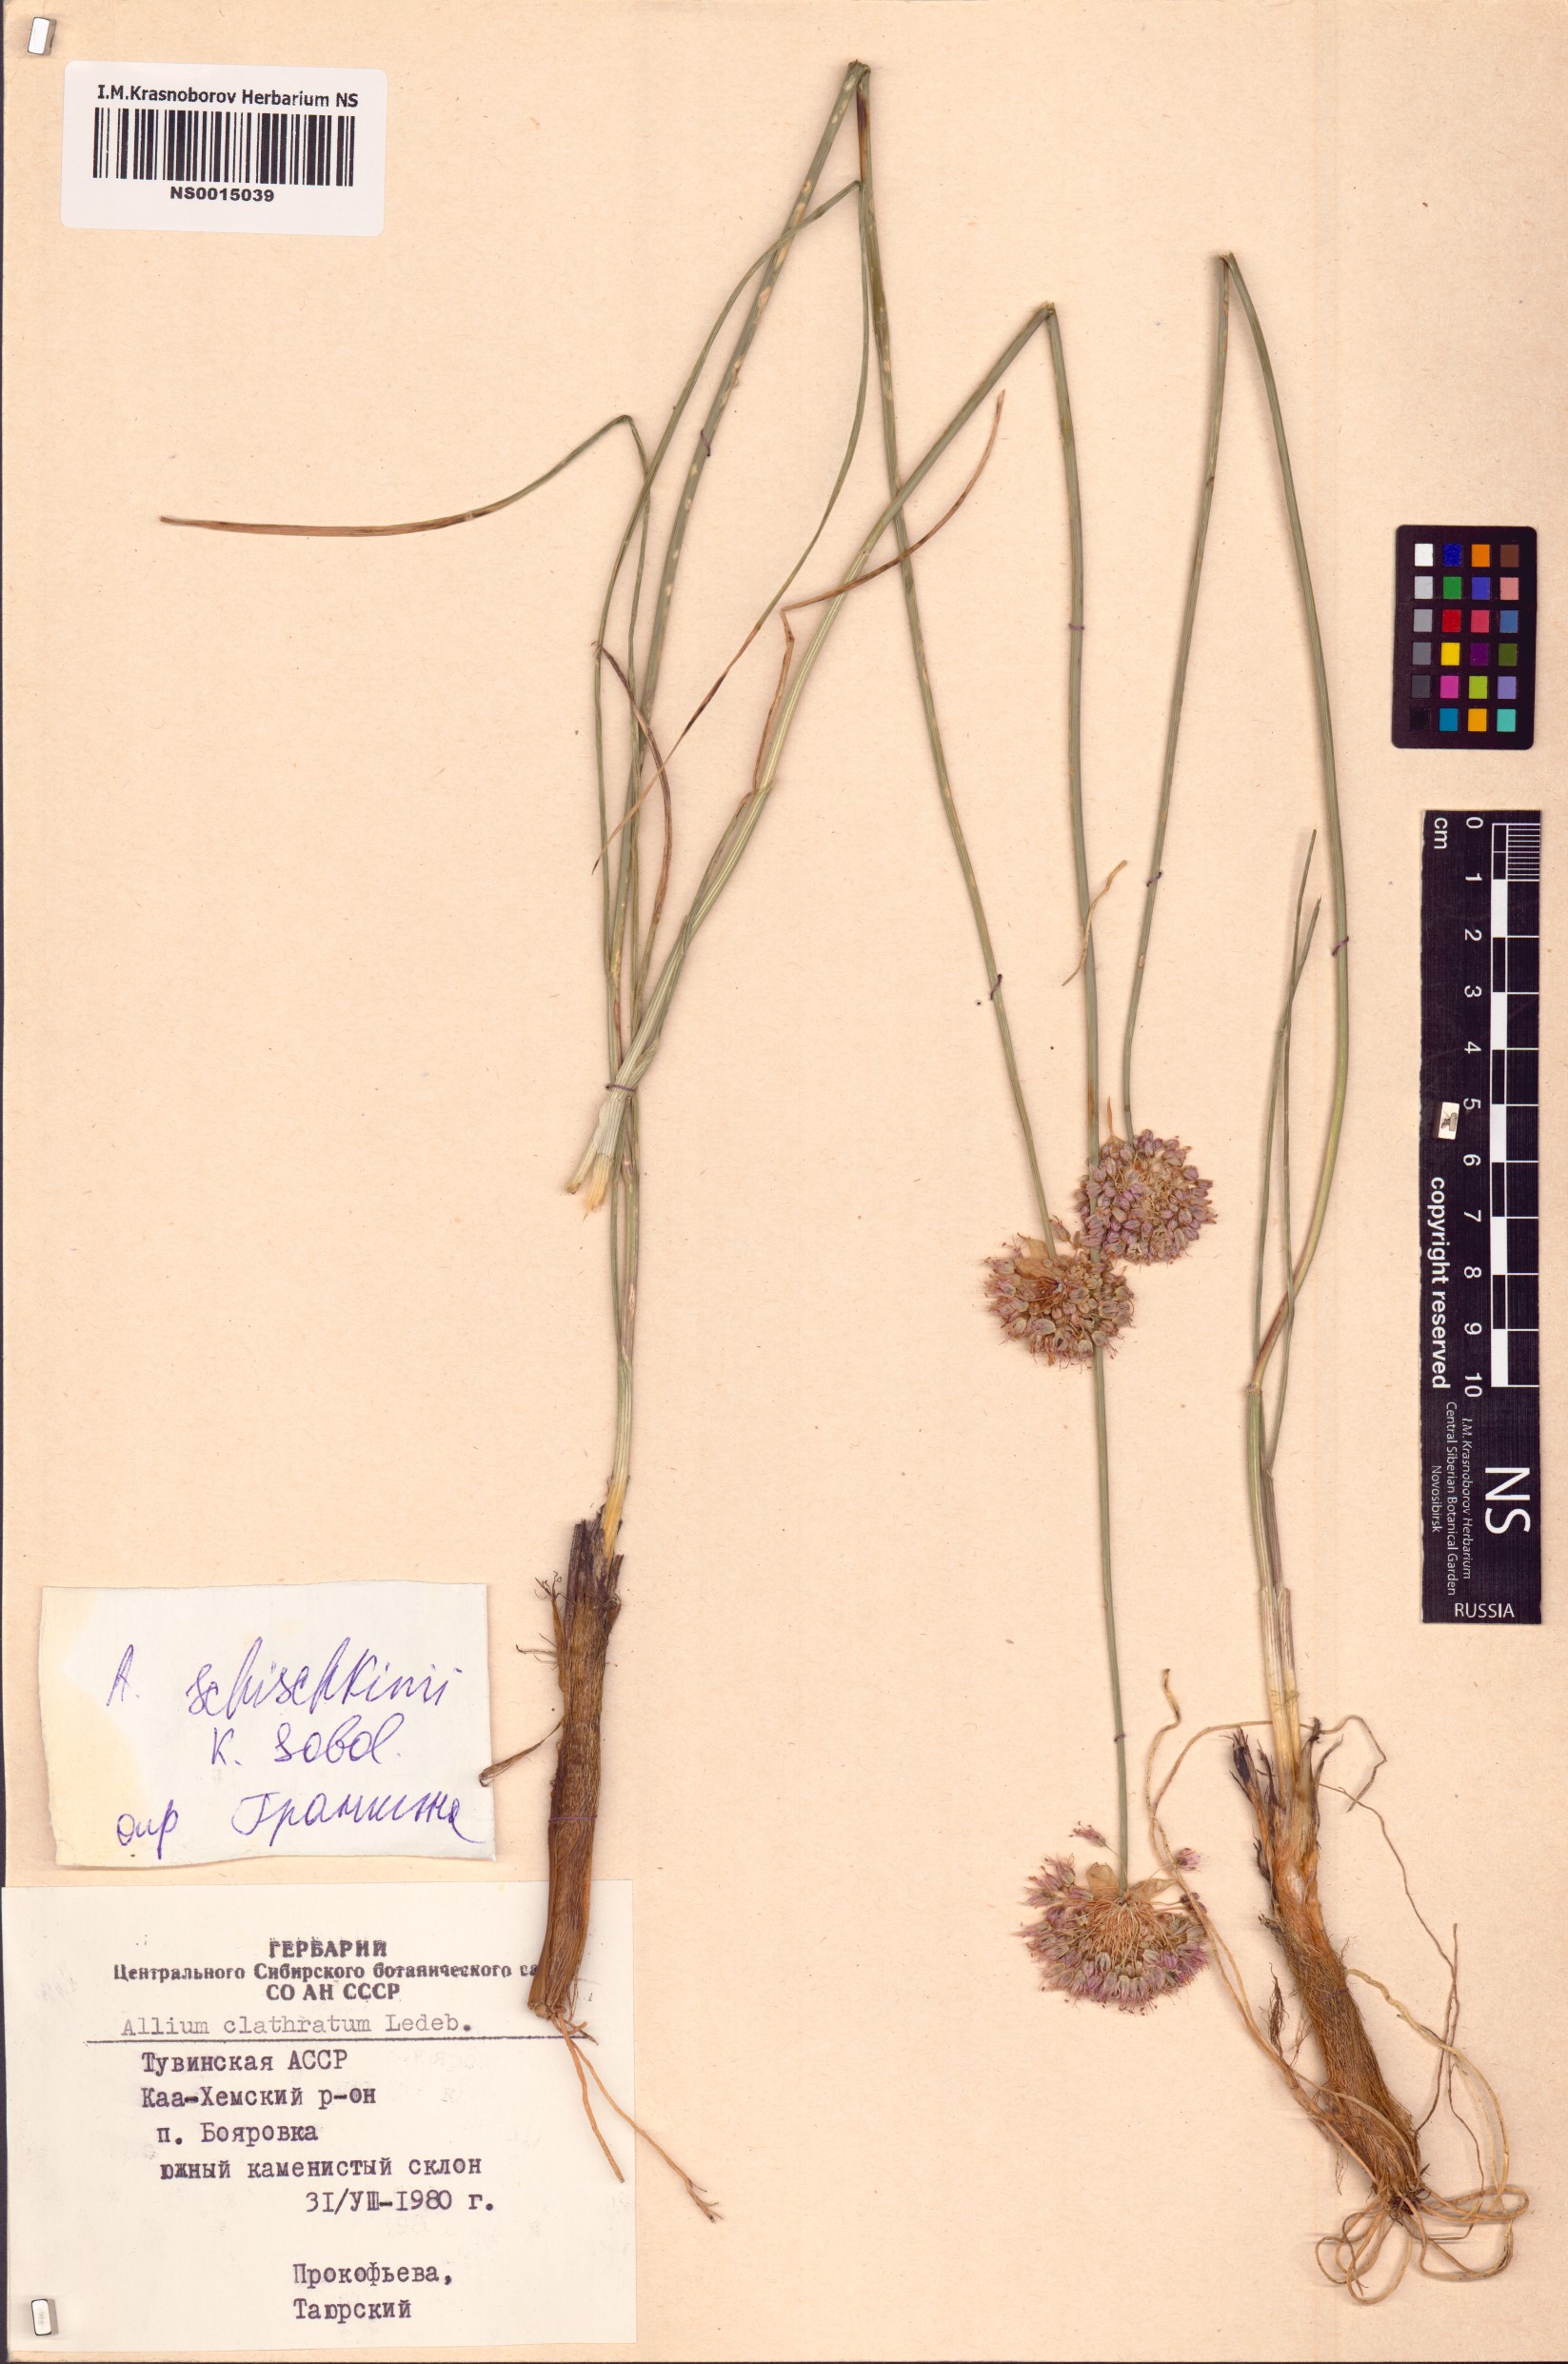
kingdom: Plantae
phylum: Tracheophyta
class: Liliopsida
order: Asparagales
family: Amaryllidaceae
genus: Allium
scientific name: Allium schischkinii
